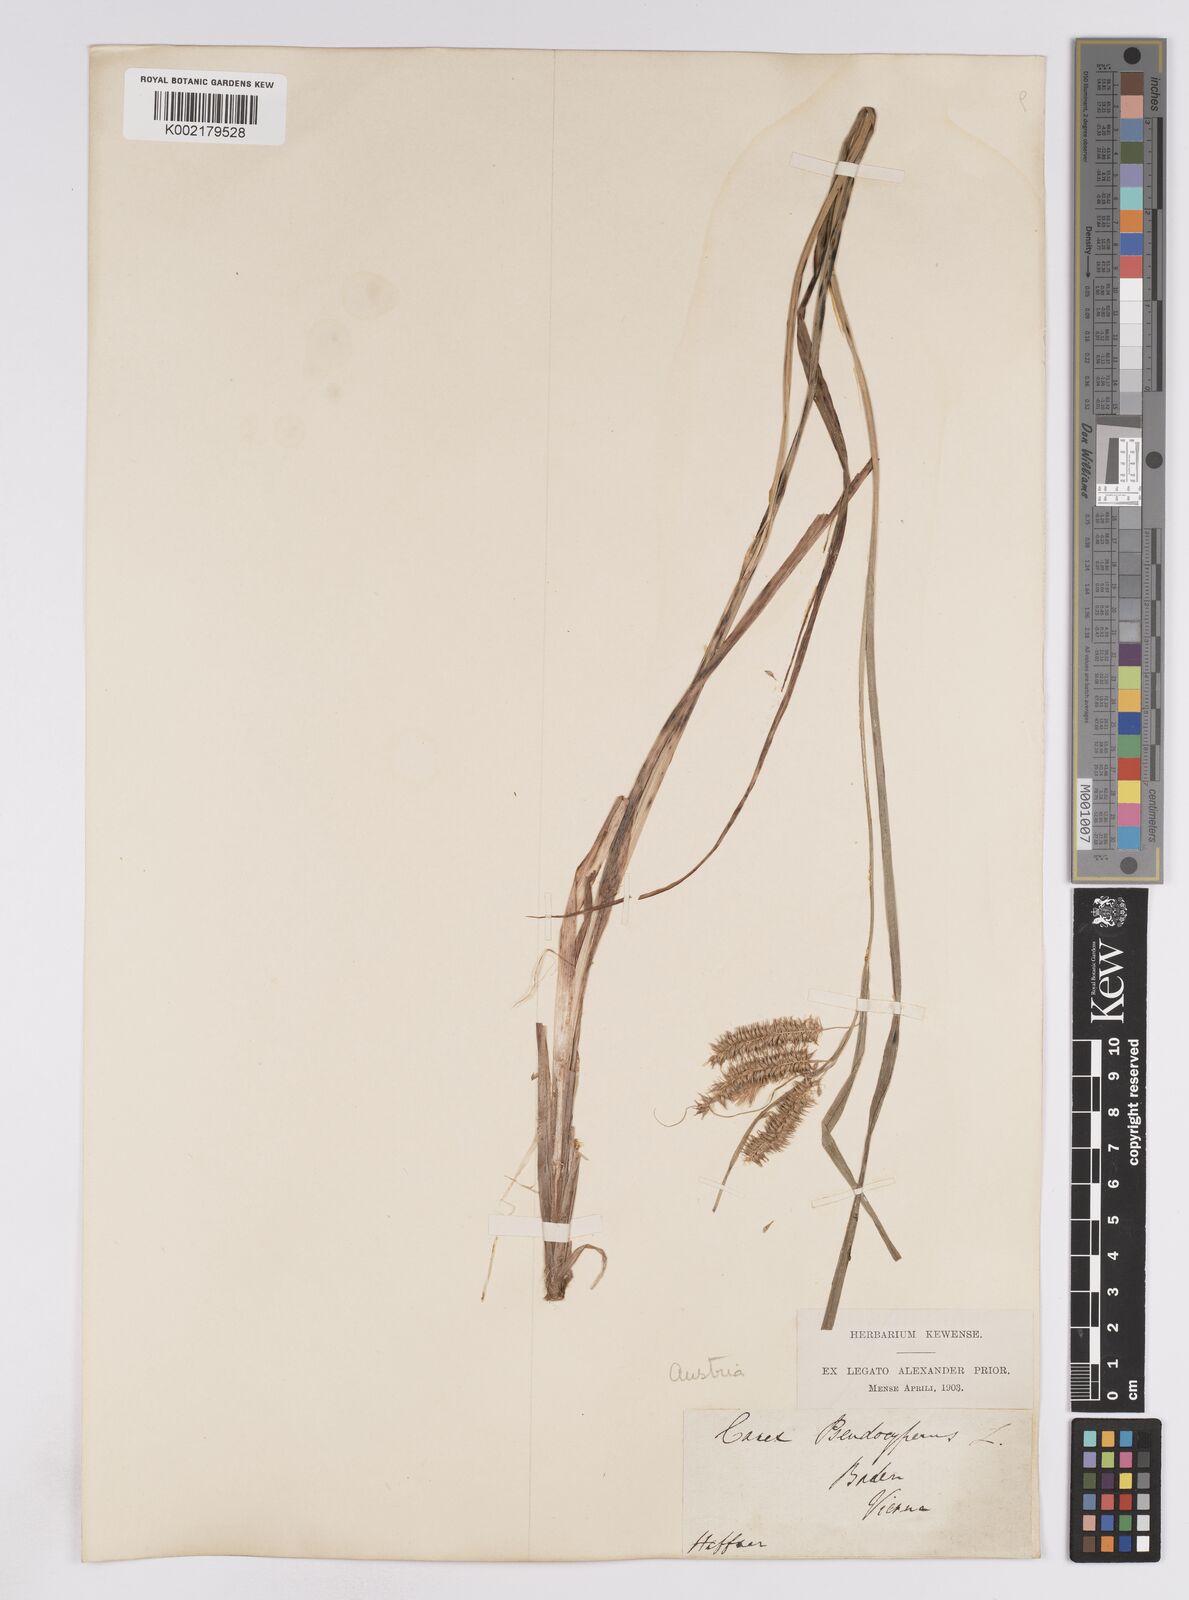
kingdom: Plantae
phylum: Tracheophyta
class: Liliopsida
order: Poales
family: Cyperaceae
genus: Carex
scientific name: Carex pseudocyperus
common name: Cyperus sedge
